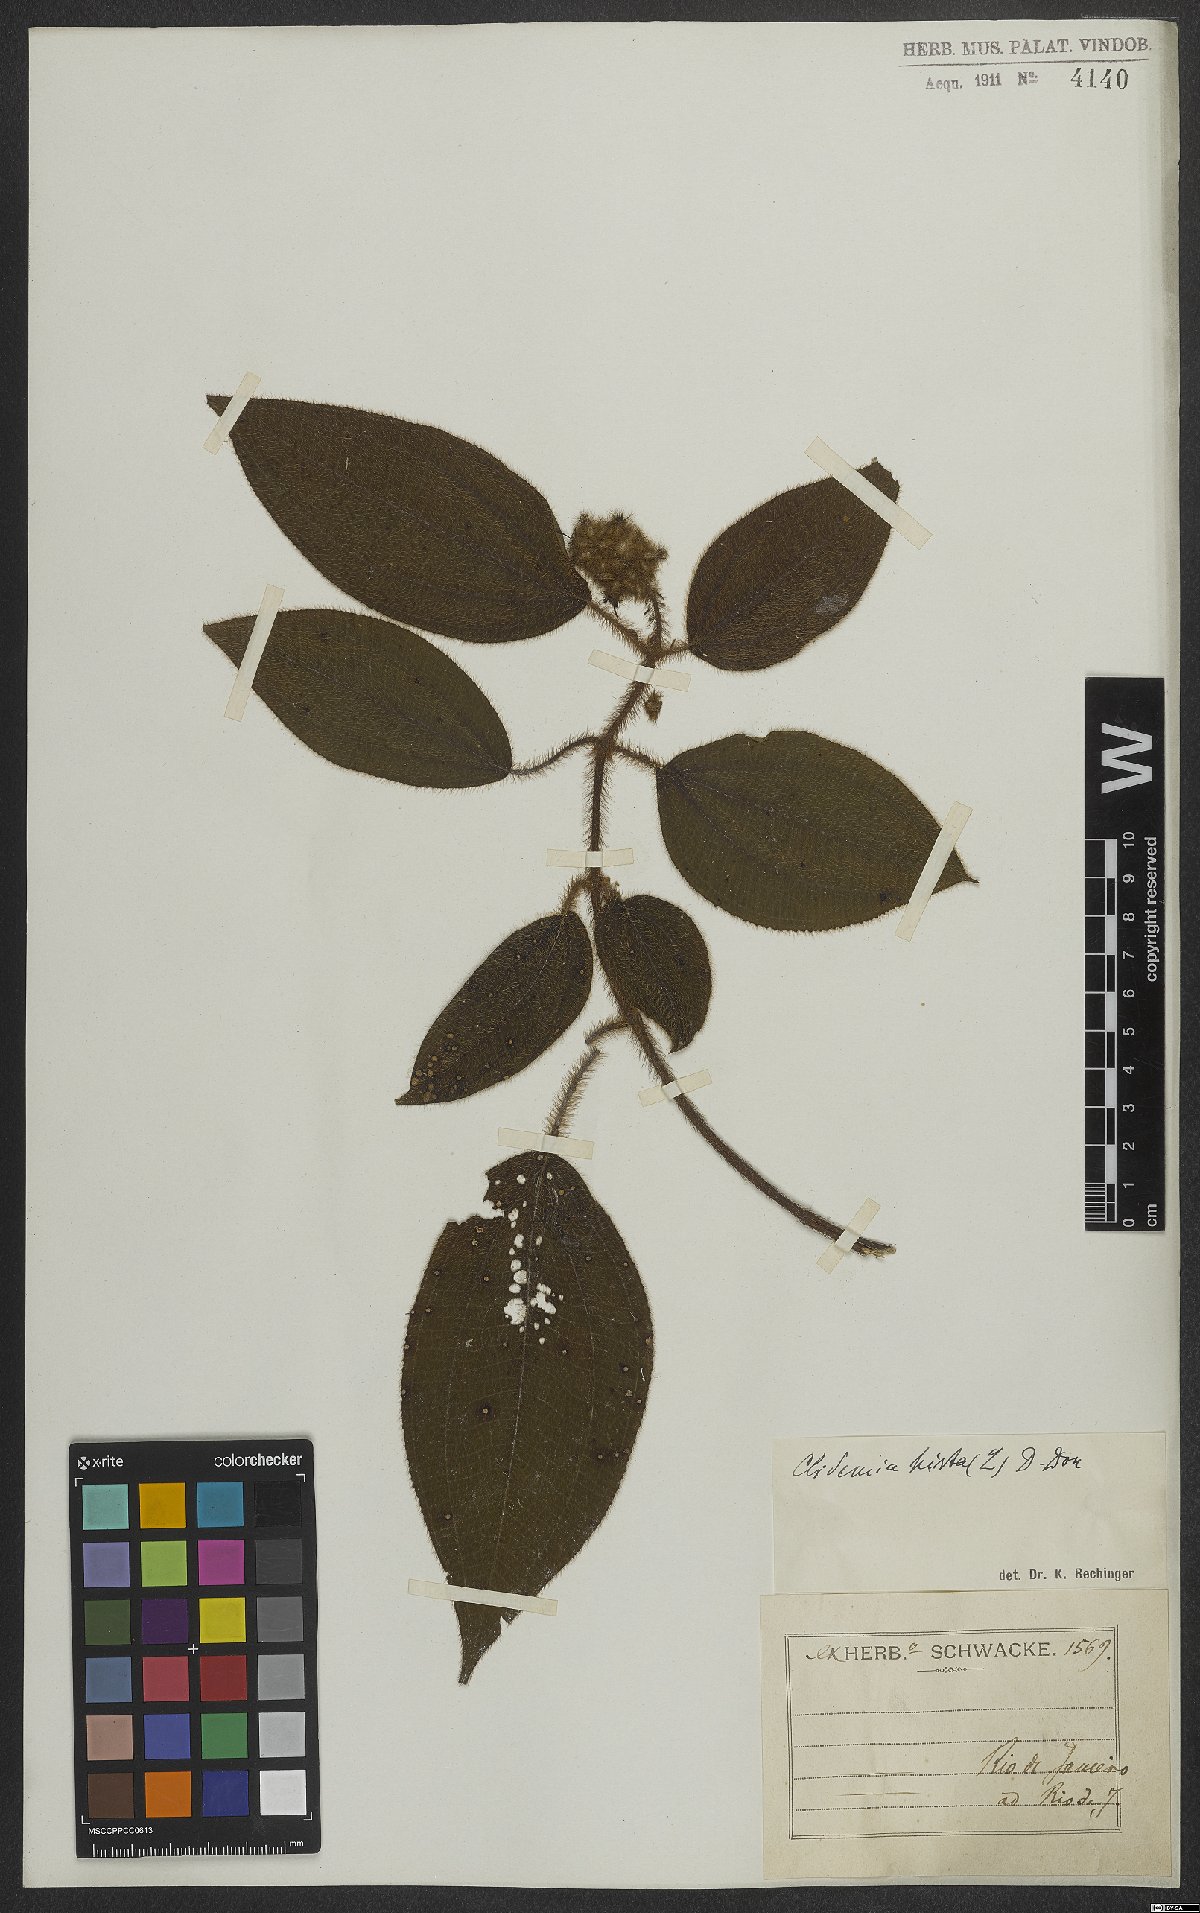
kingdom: Plantae
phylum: Tracheophyta
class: Magnoliopsida
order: Myrtales
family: Melastomataceae
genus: Miconia
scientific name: Miconia crenata
